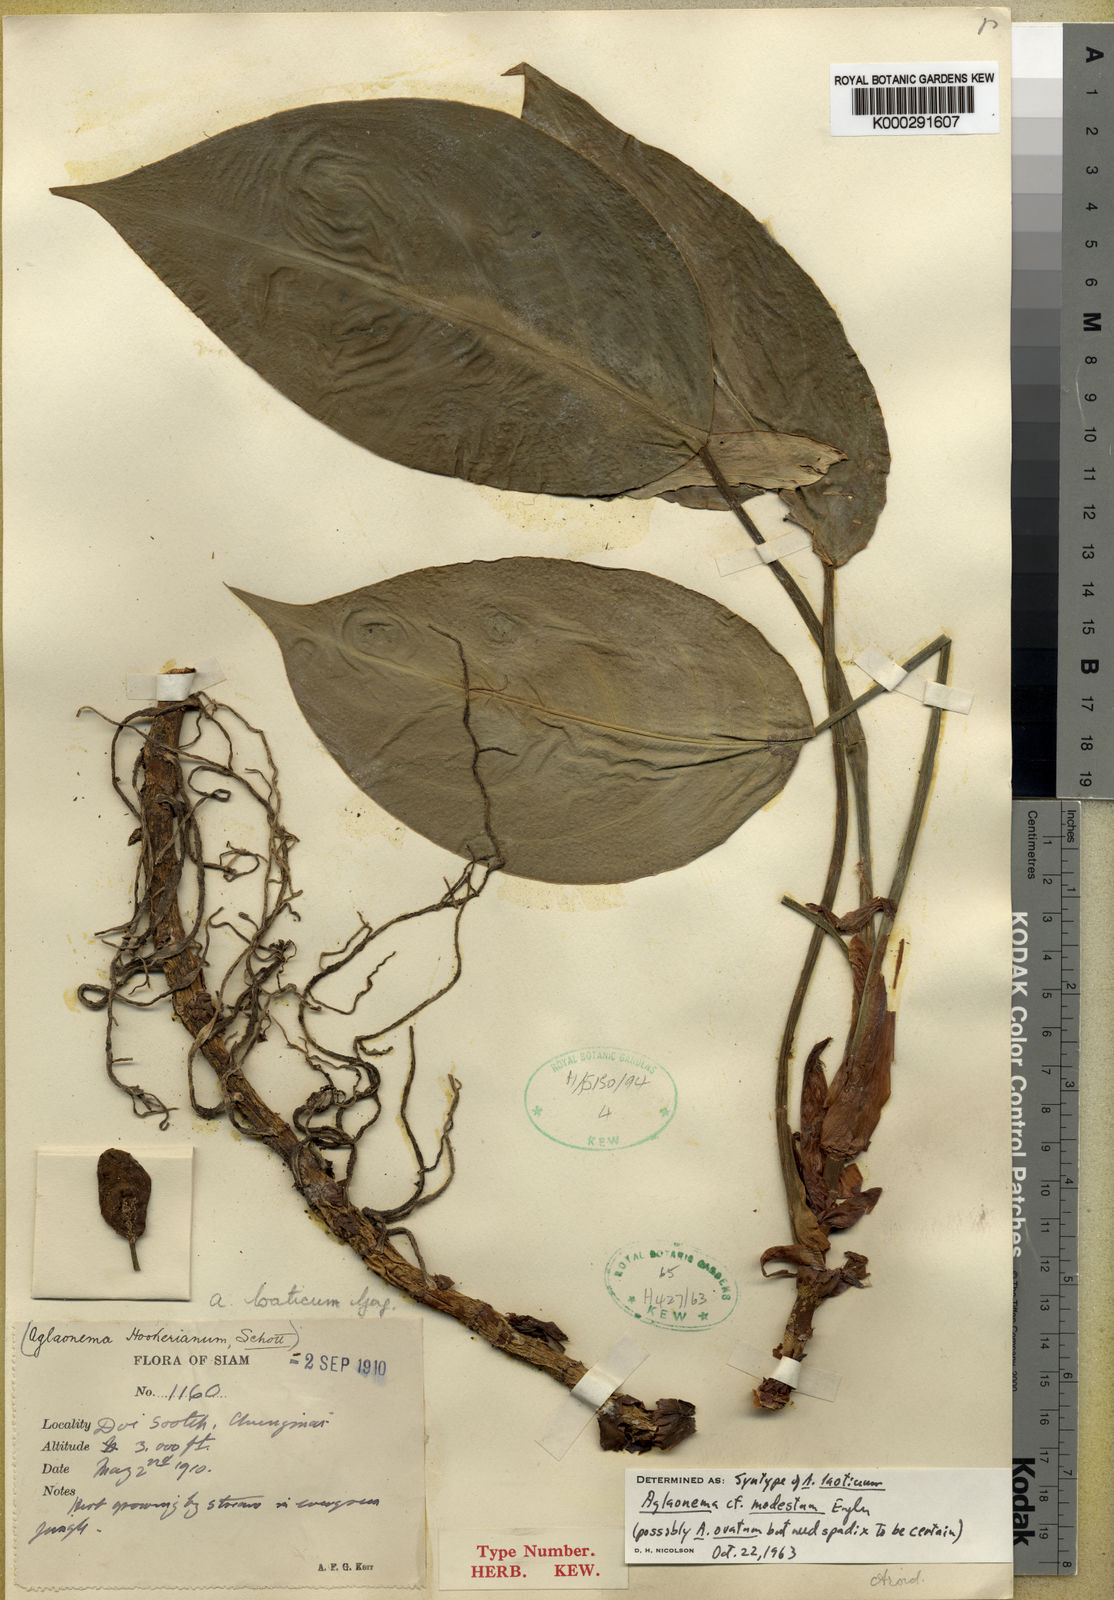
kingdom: Plantae
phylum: Tracheophyta
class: Liliopsida
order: Alismatales
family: Araceae
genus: Aglaonema
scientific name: Aglaonema modestum
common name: Chinese evergreen
